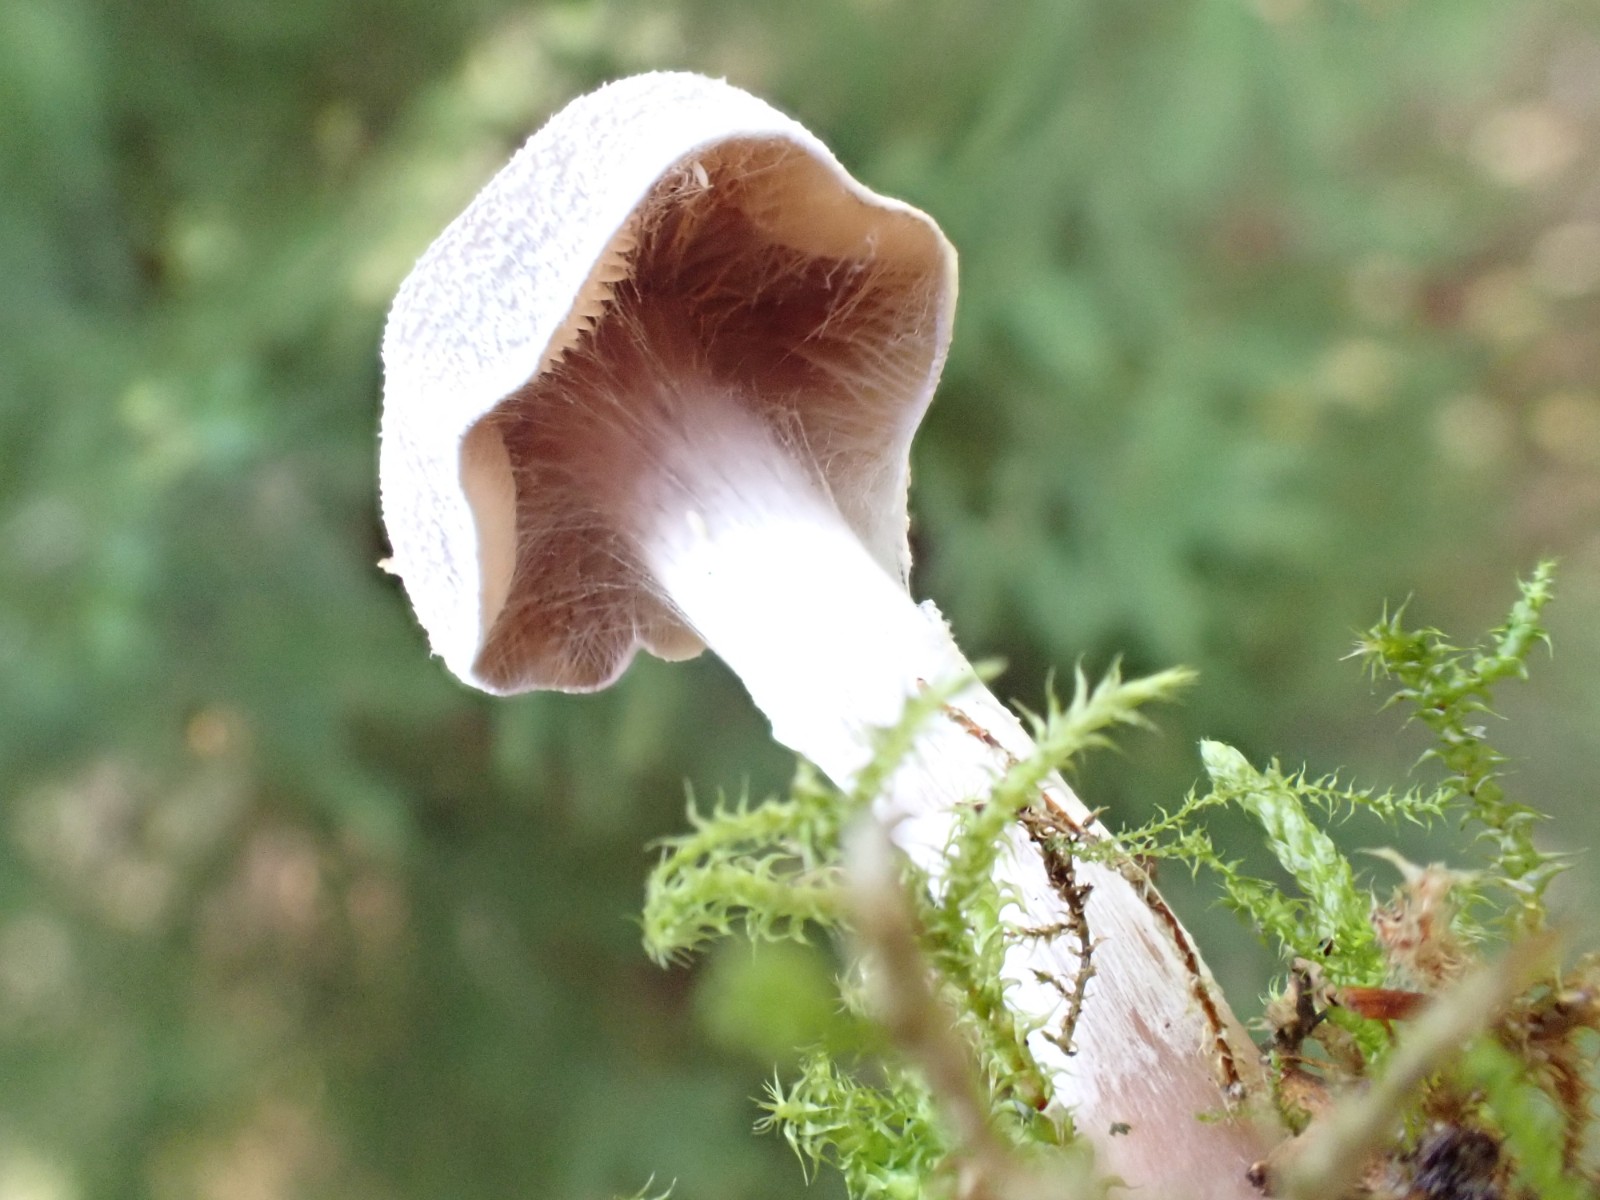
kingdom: Fungi
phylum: Basidiomycota
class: Agaricomycetes
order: Agaricales
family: Cortinariaceae
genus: Cortinarius
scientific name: Cortinarius
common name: pelargonie-slørhat
